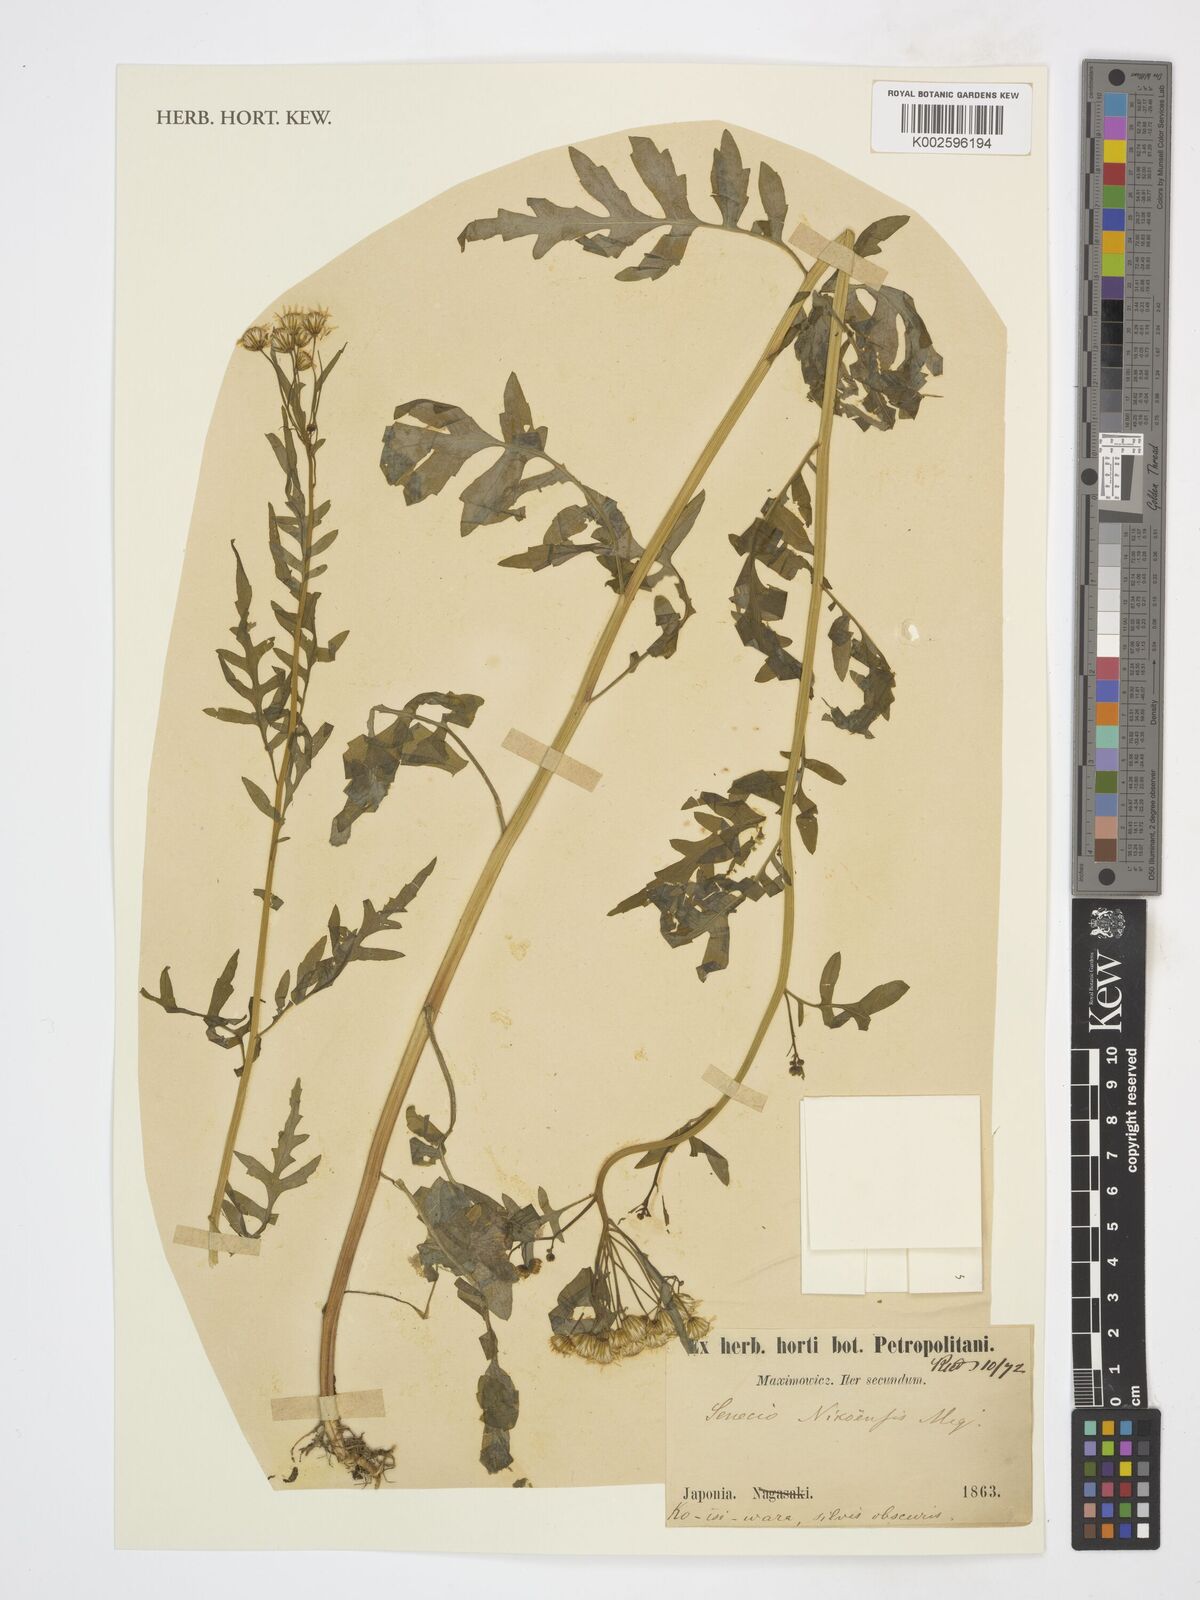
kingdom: Plantae
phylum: Tracheophyta
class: Magnoliopsida
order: Asterales
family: Asteraceae
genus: Nemosenecio
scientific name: Nemosenecio nikoensis
